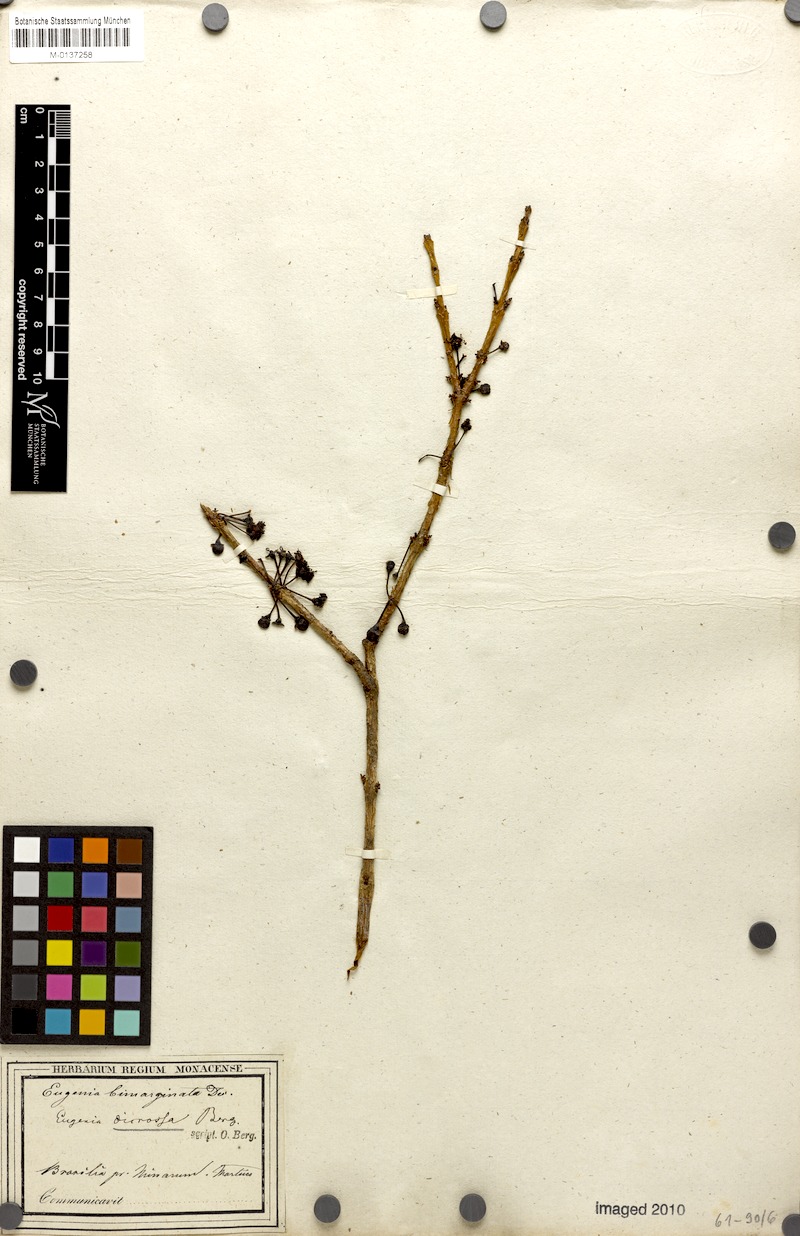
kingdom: Plantae
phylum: Tracheophyta
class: Magnoliopsida
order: Myrtales
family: Myrtaceae
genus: Eugenia
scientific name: Eugenia bimarginata
